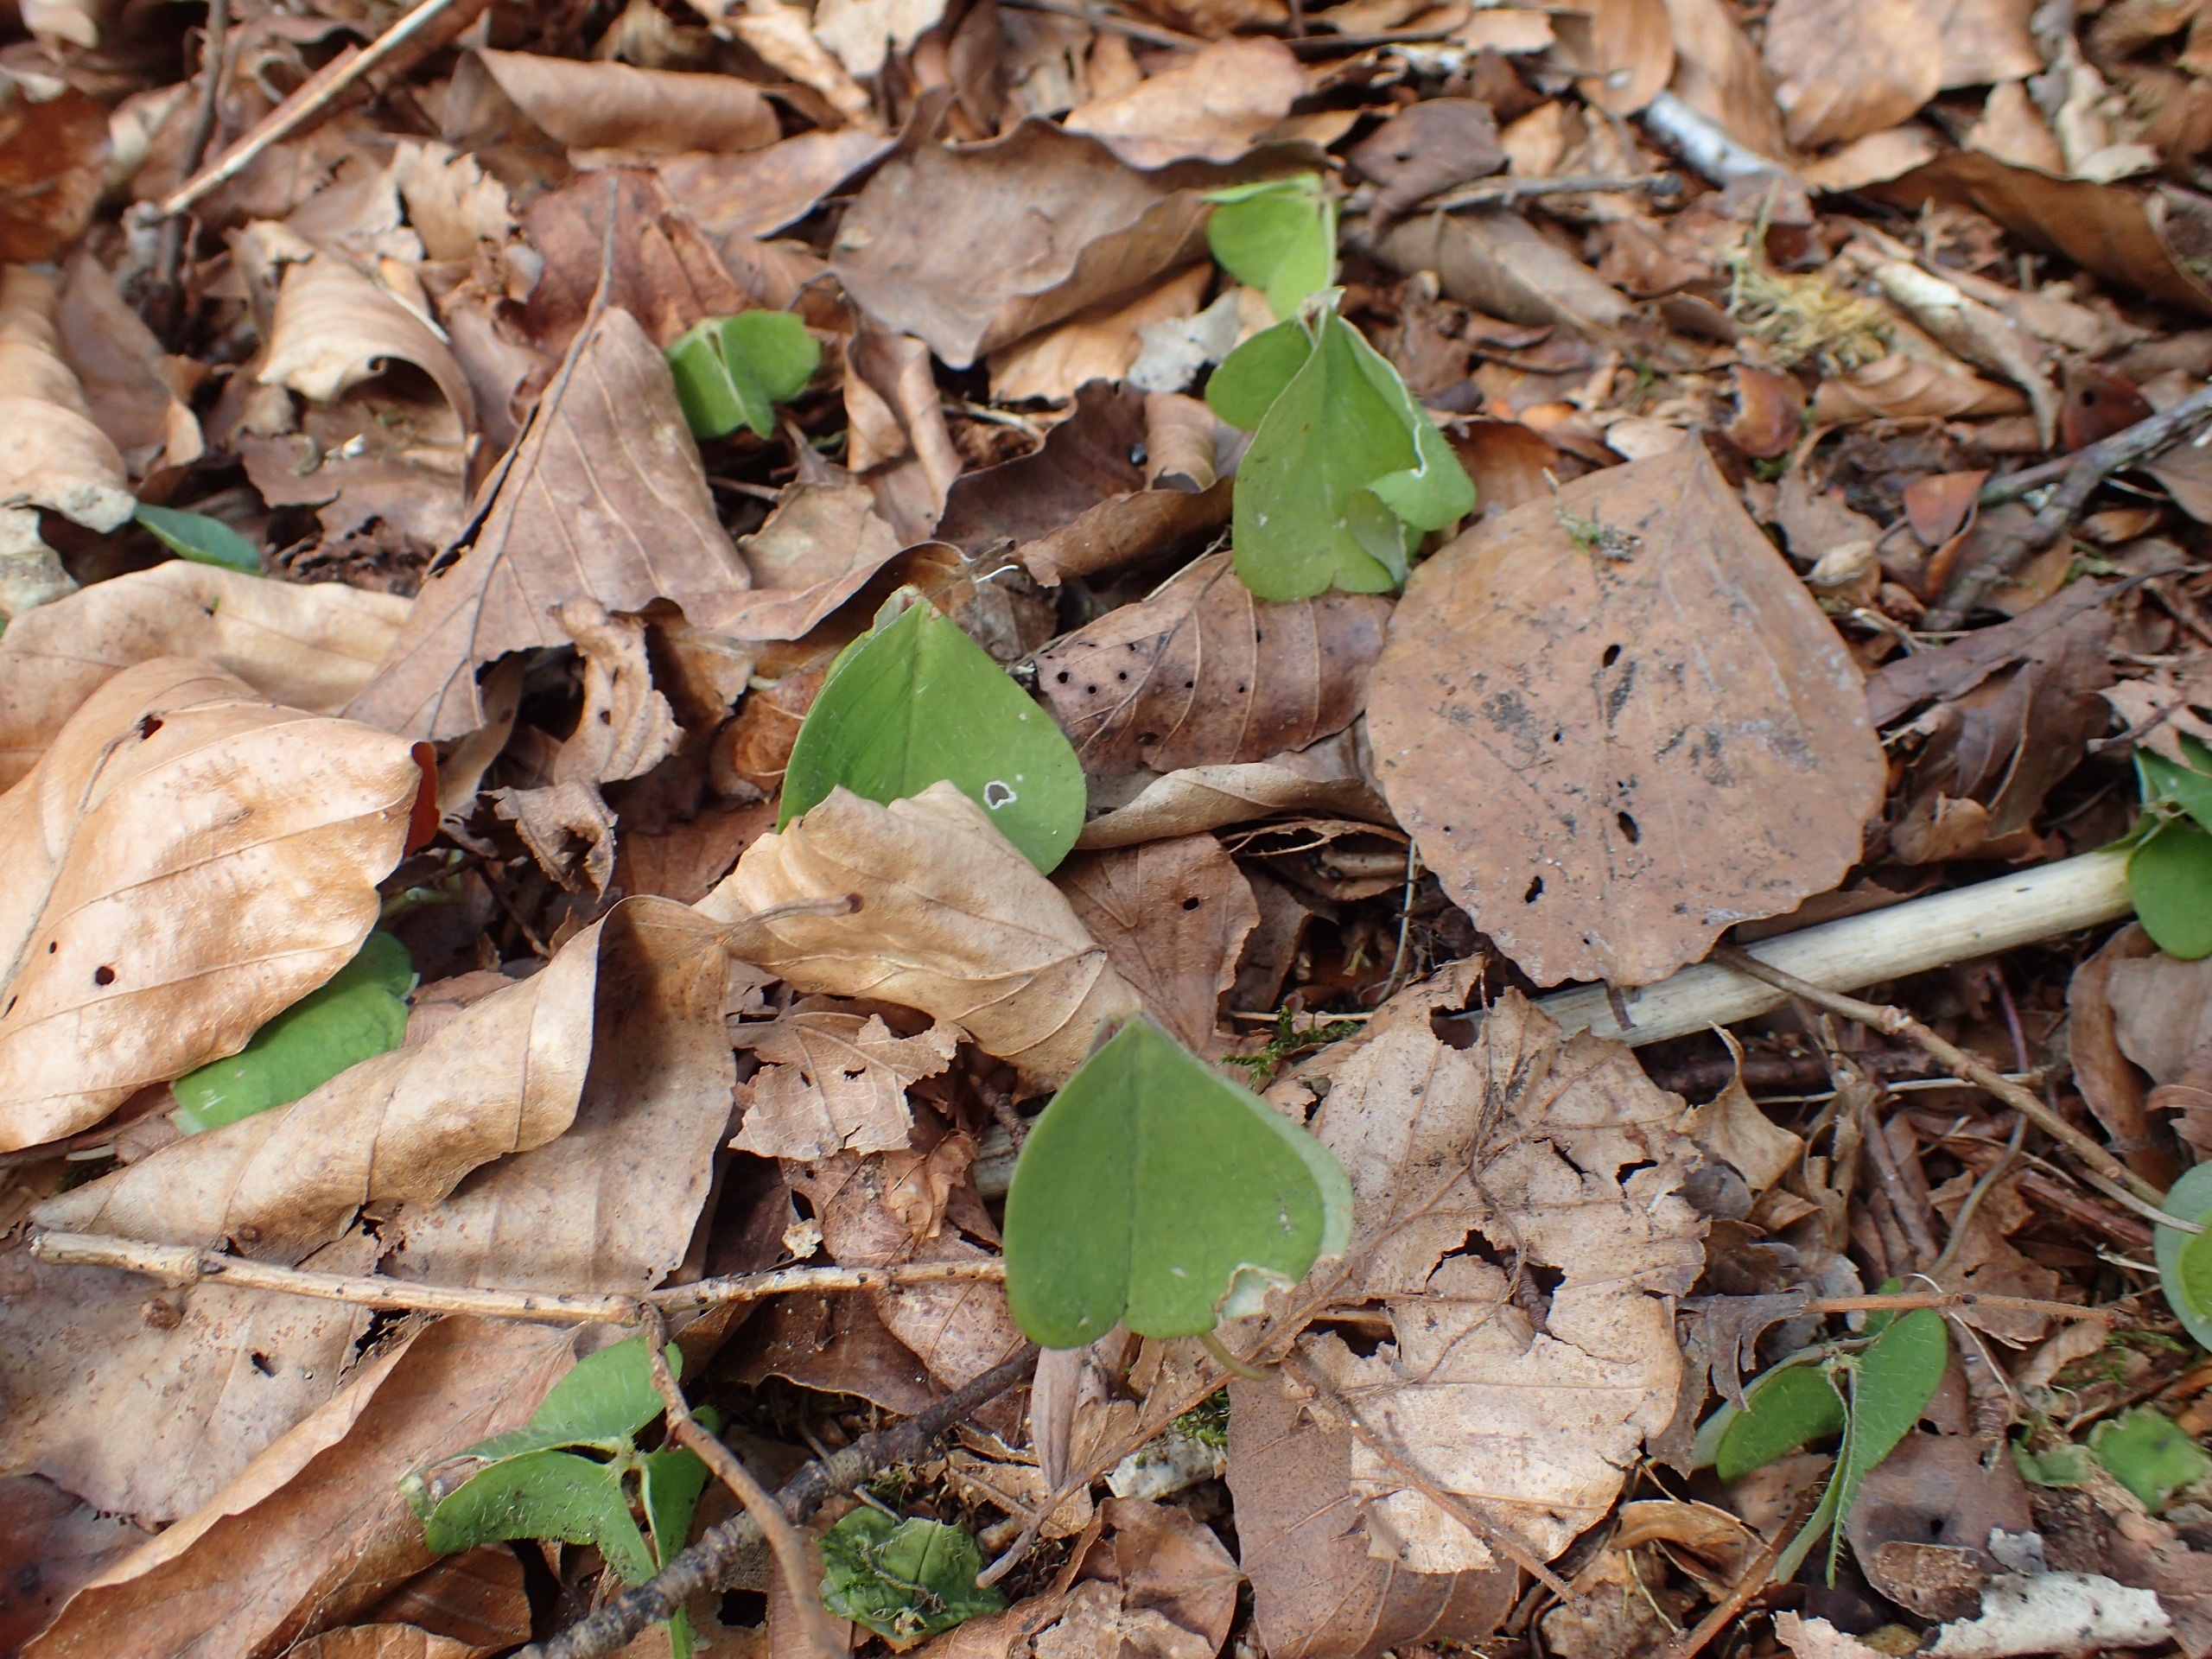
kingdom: Plantae
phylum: Tracheophyta
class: Magnoliopsida
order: Oxalidales
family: Oxalidaceae
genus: Oxalis
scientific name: Oxalis acetosella
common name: Skovsyre
